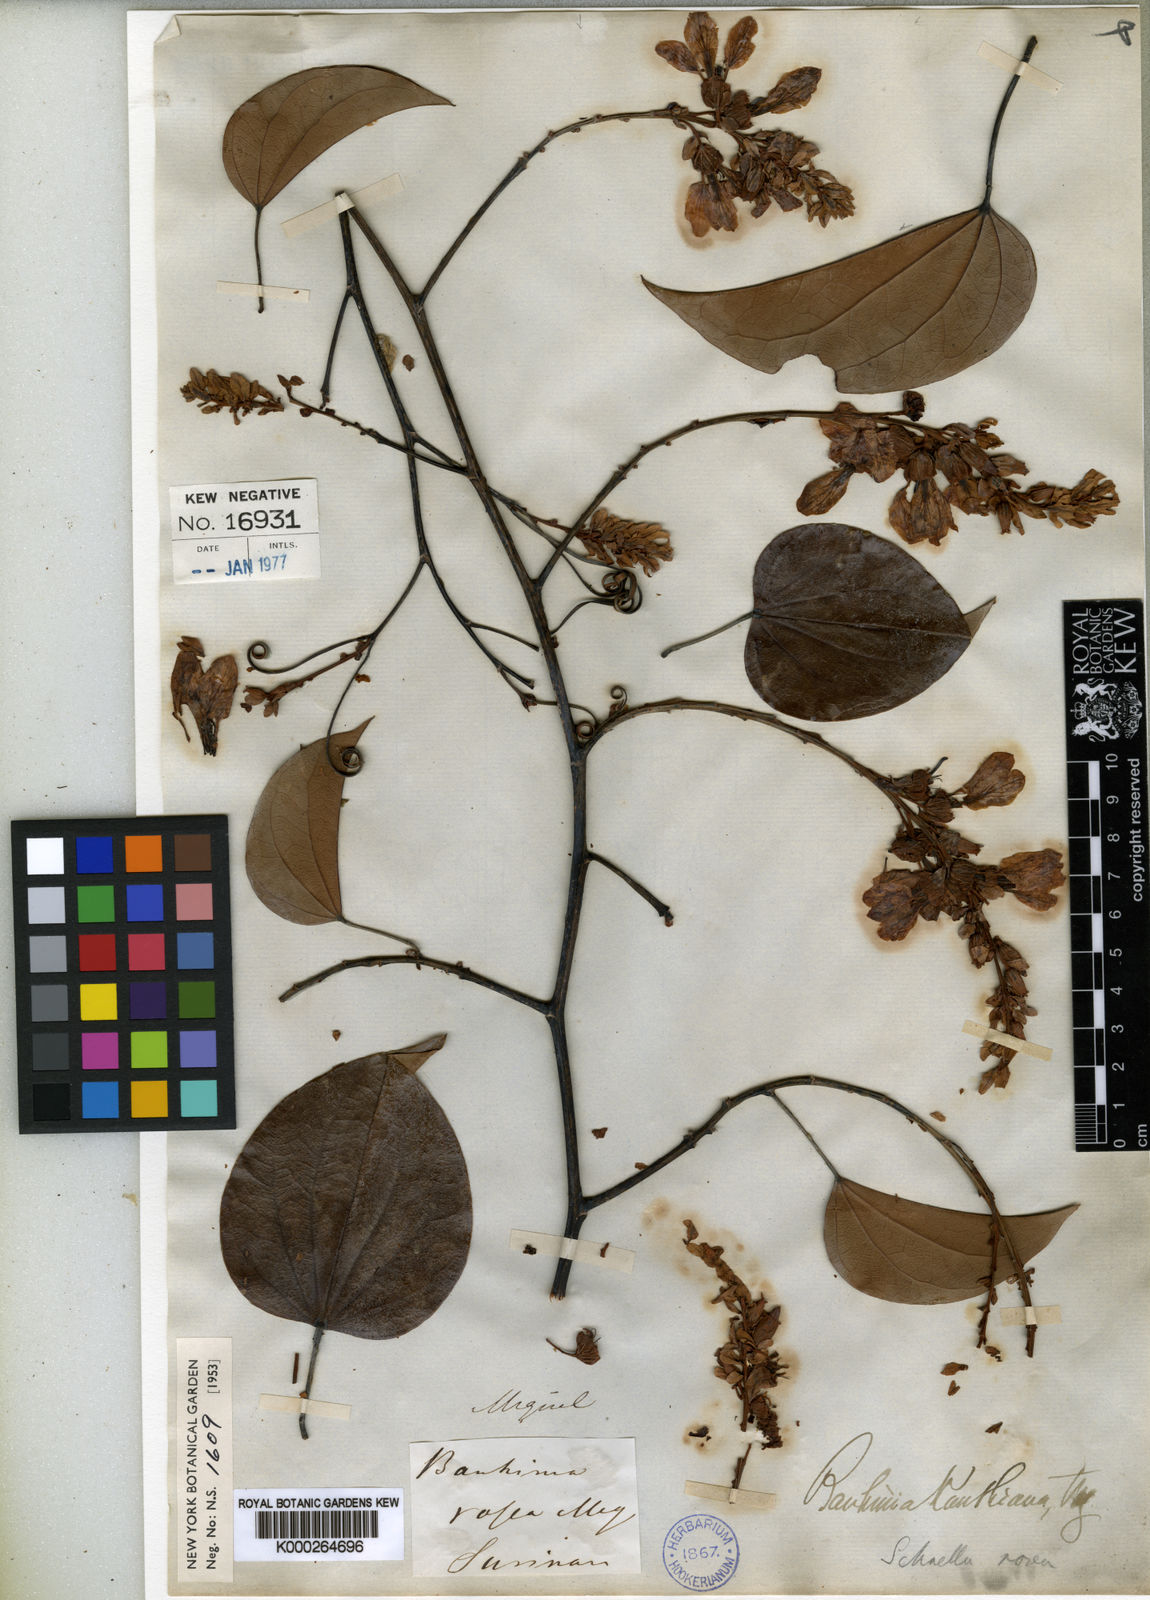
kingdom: Plantae
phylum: Tracheophyta
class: Magnoliopsida
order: Fabales
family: Fabaceae
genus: Schnella
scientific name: Schnella kunthiana
